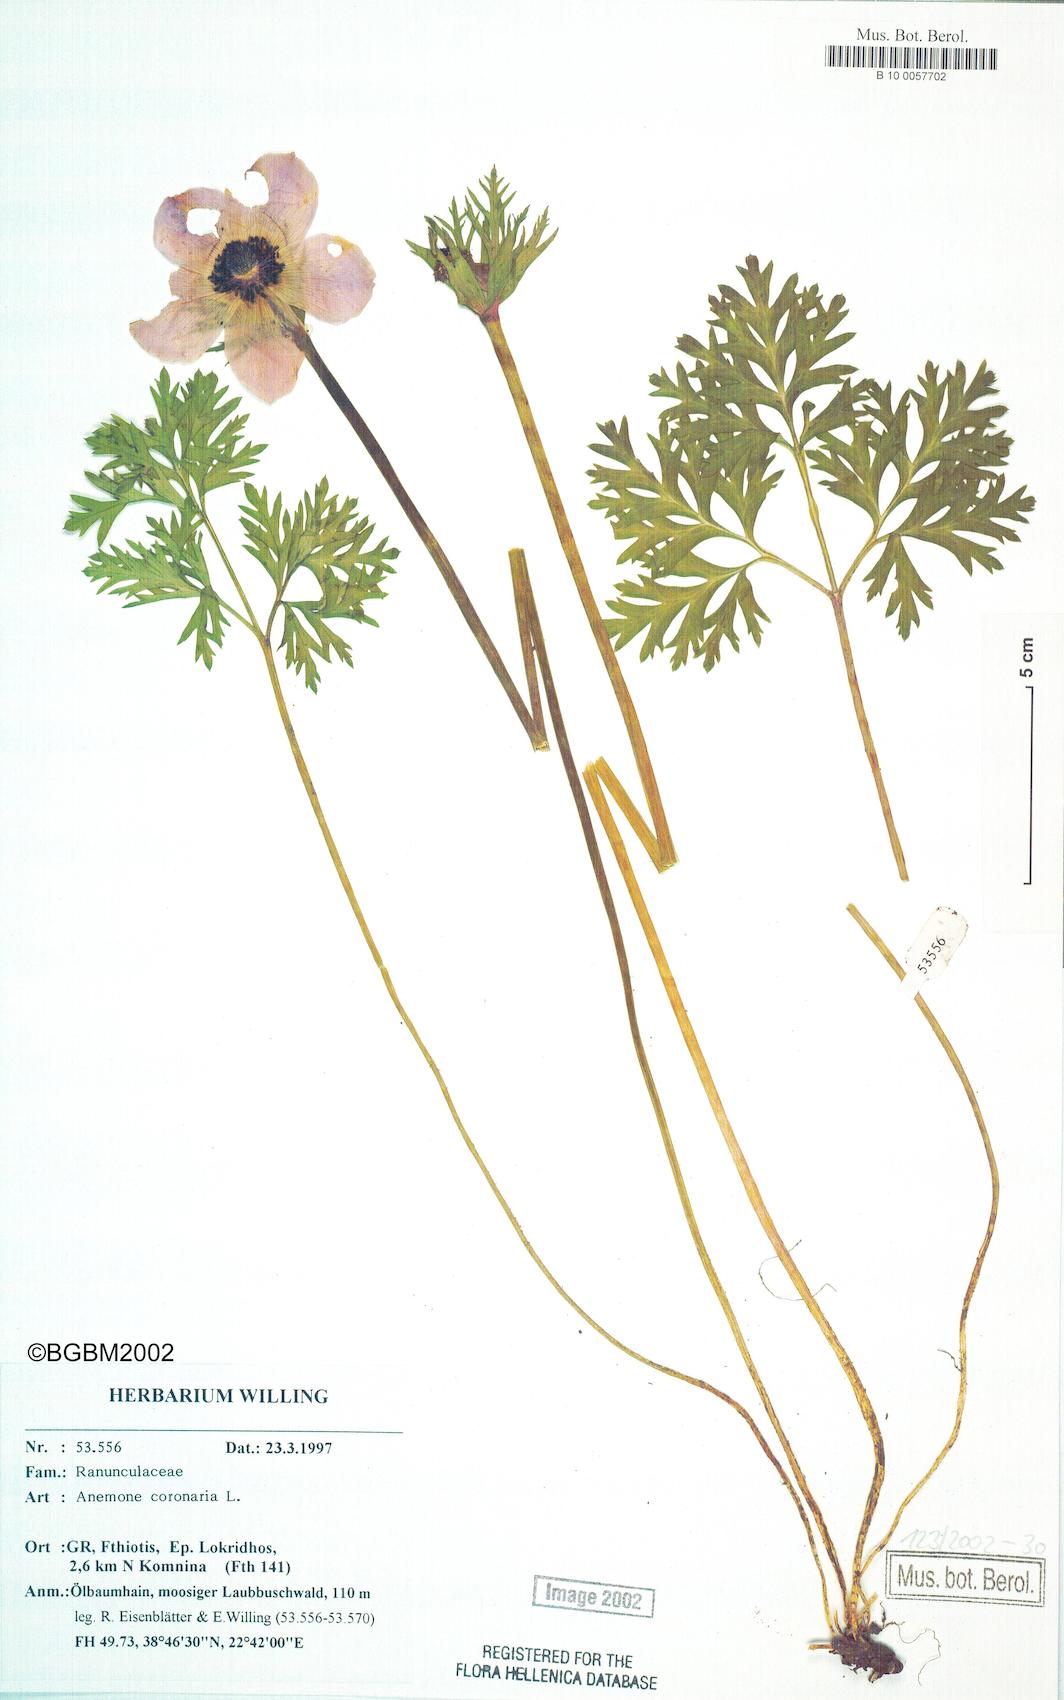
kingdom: Plantae
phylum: Tracheophyta
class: Magnoliopsida
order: Ranunculales
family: Ranunculaceae
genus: Anemone
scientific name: Anemone coronaria
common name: Poppy anemone
